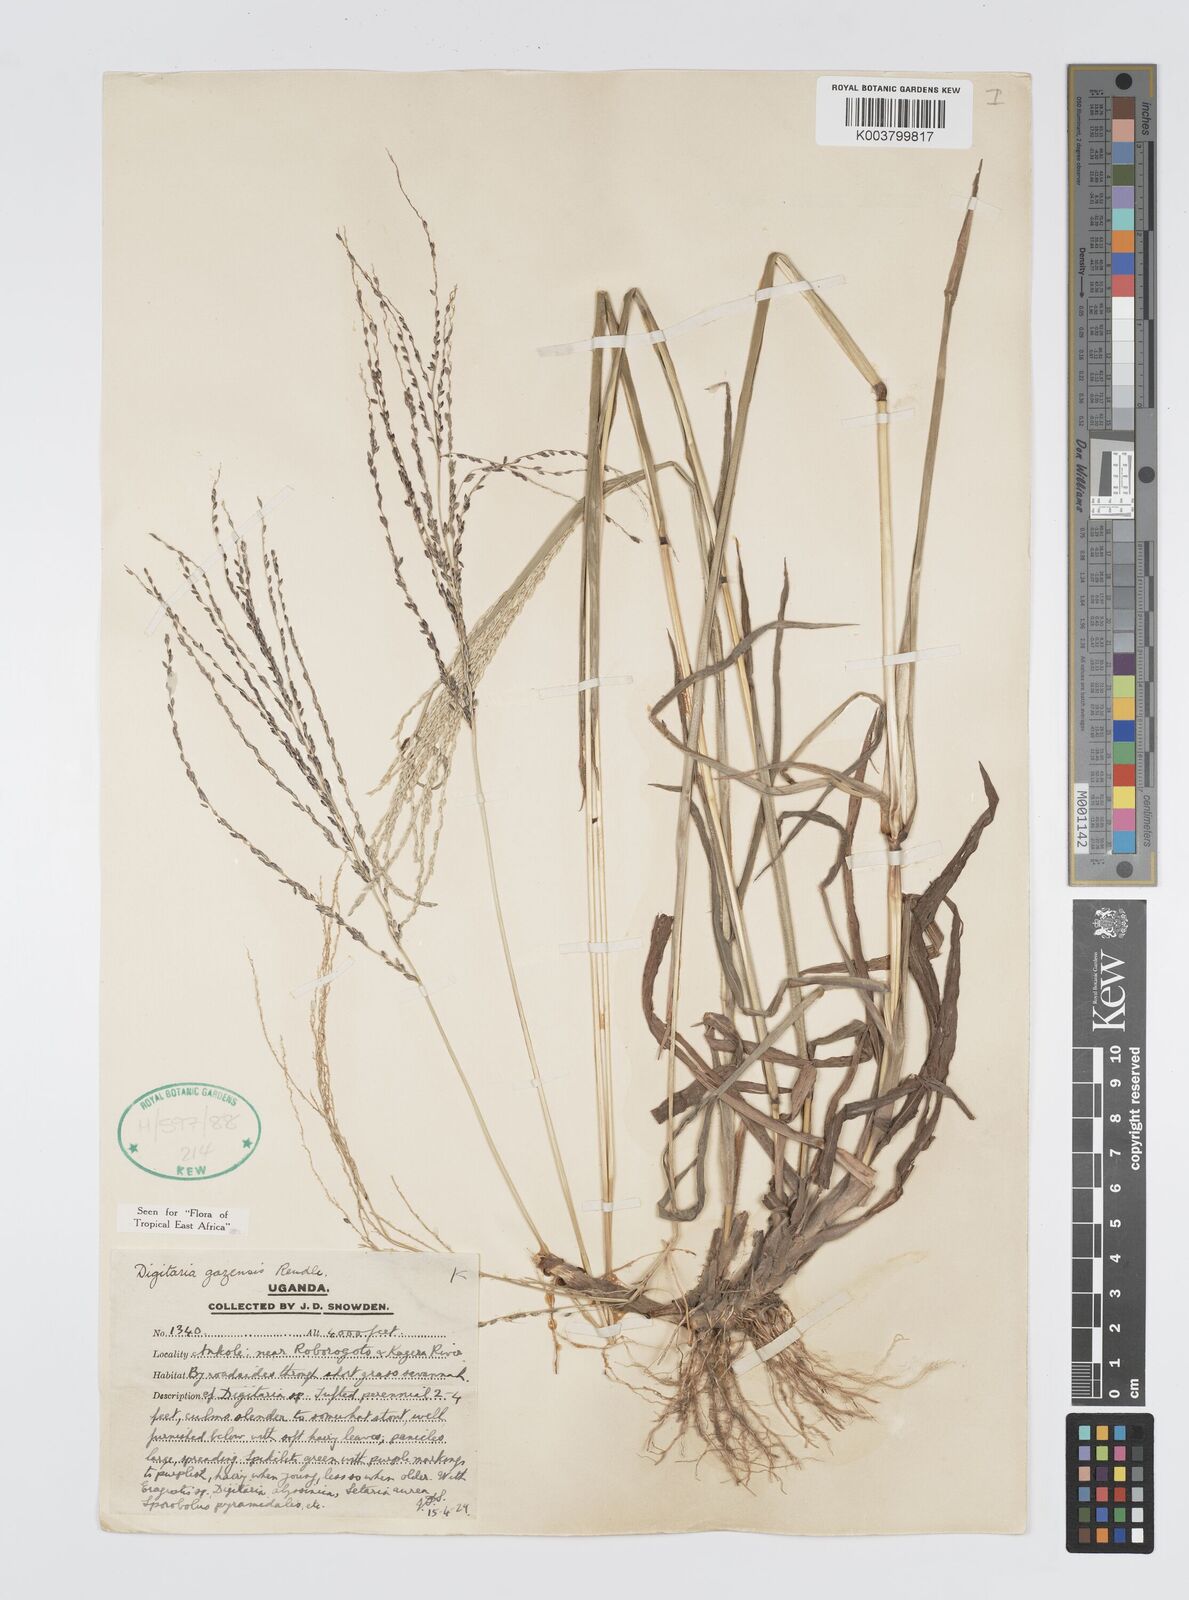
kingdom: Plantae
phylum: Tracheophyta
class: Liliopsida
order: Poales
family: Poaceae
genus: Digitaria
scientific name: Digitaria gazensis
